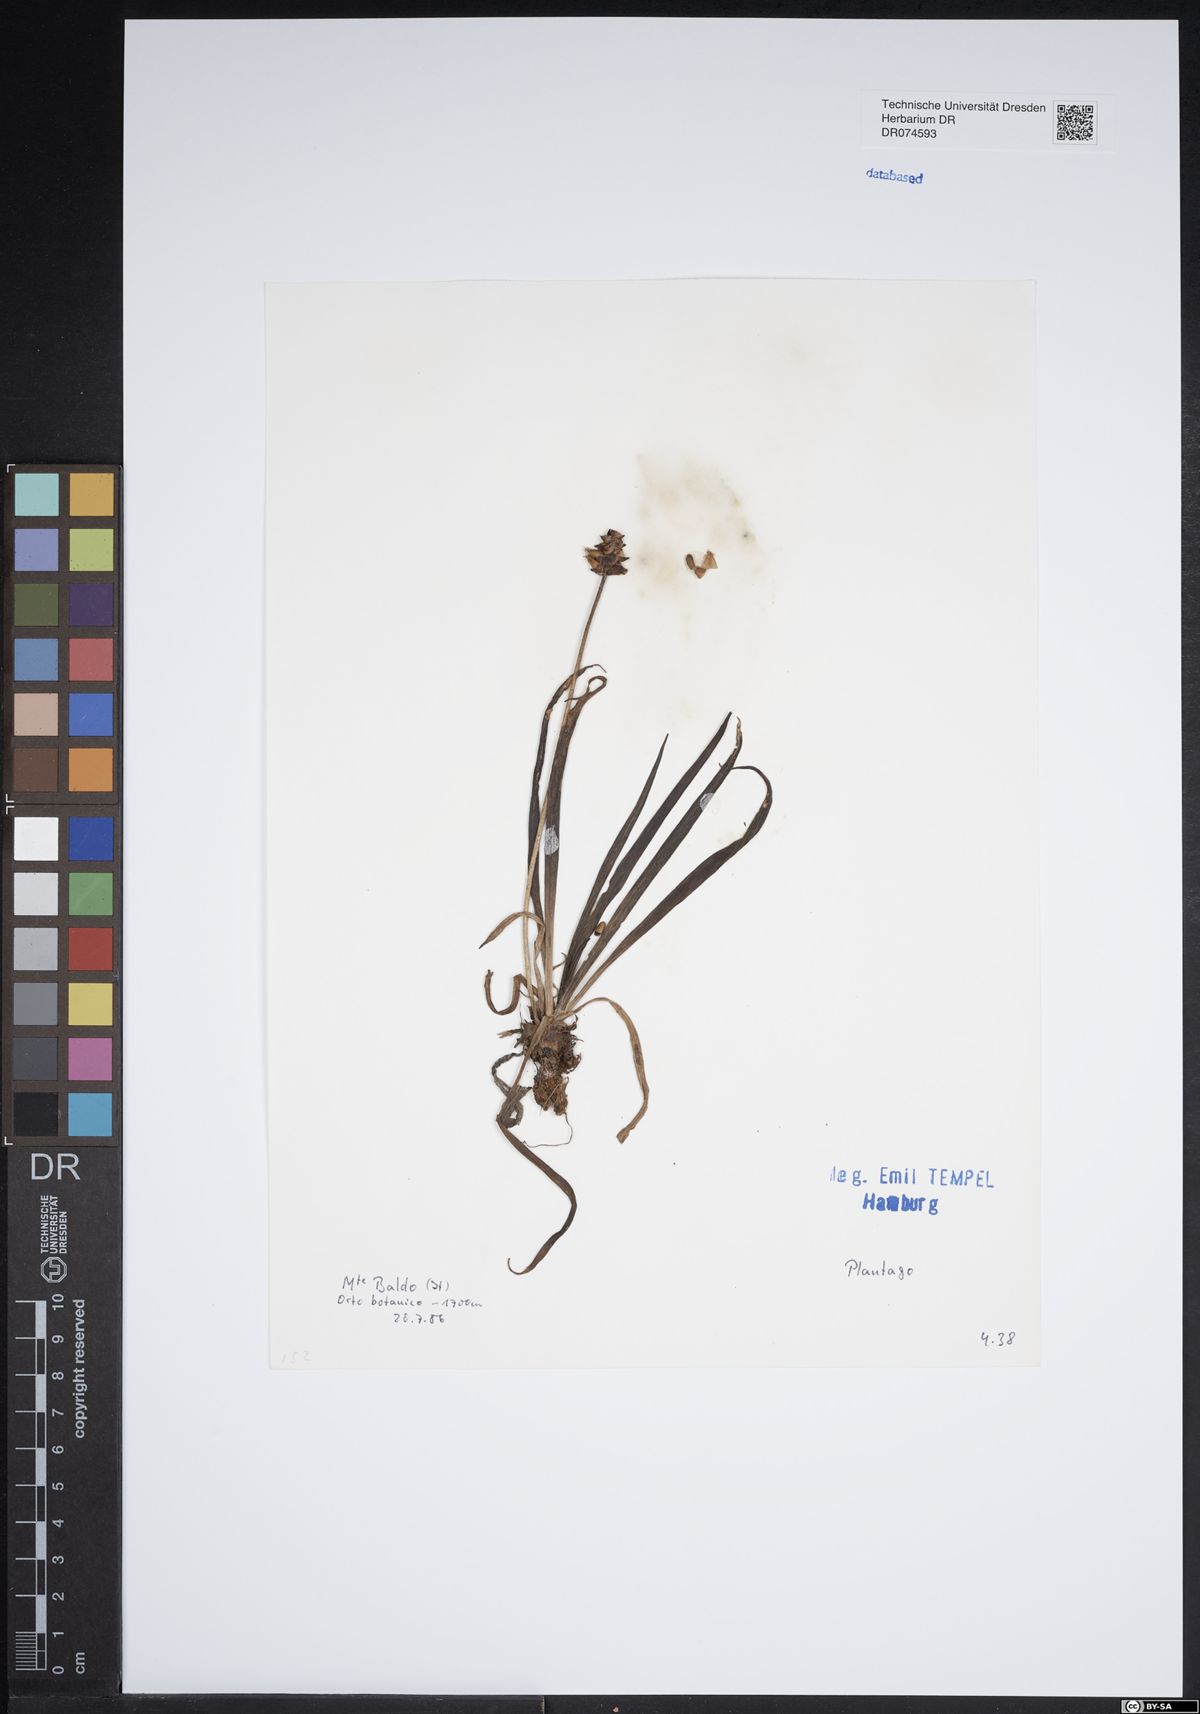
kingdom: Plantae
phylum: Tracheophyta
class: Magnoliopsida
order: Lamiales
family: Plantaginaceae
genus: Plantago
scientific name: Plantago
